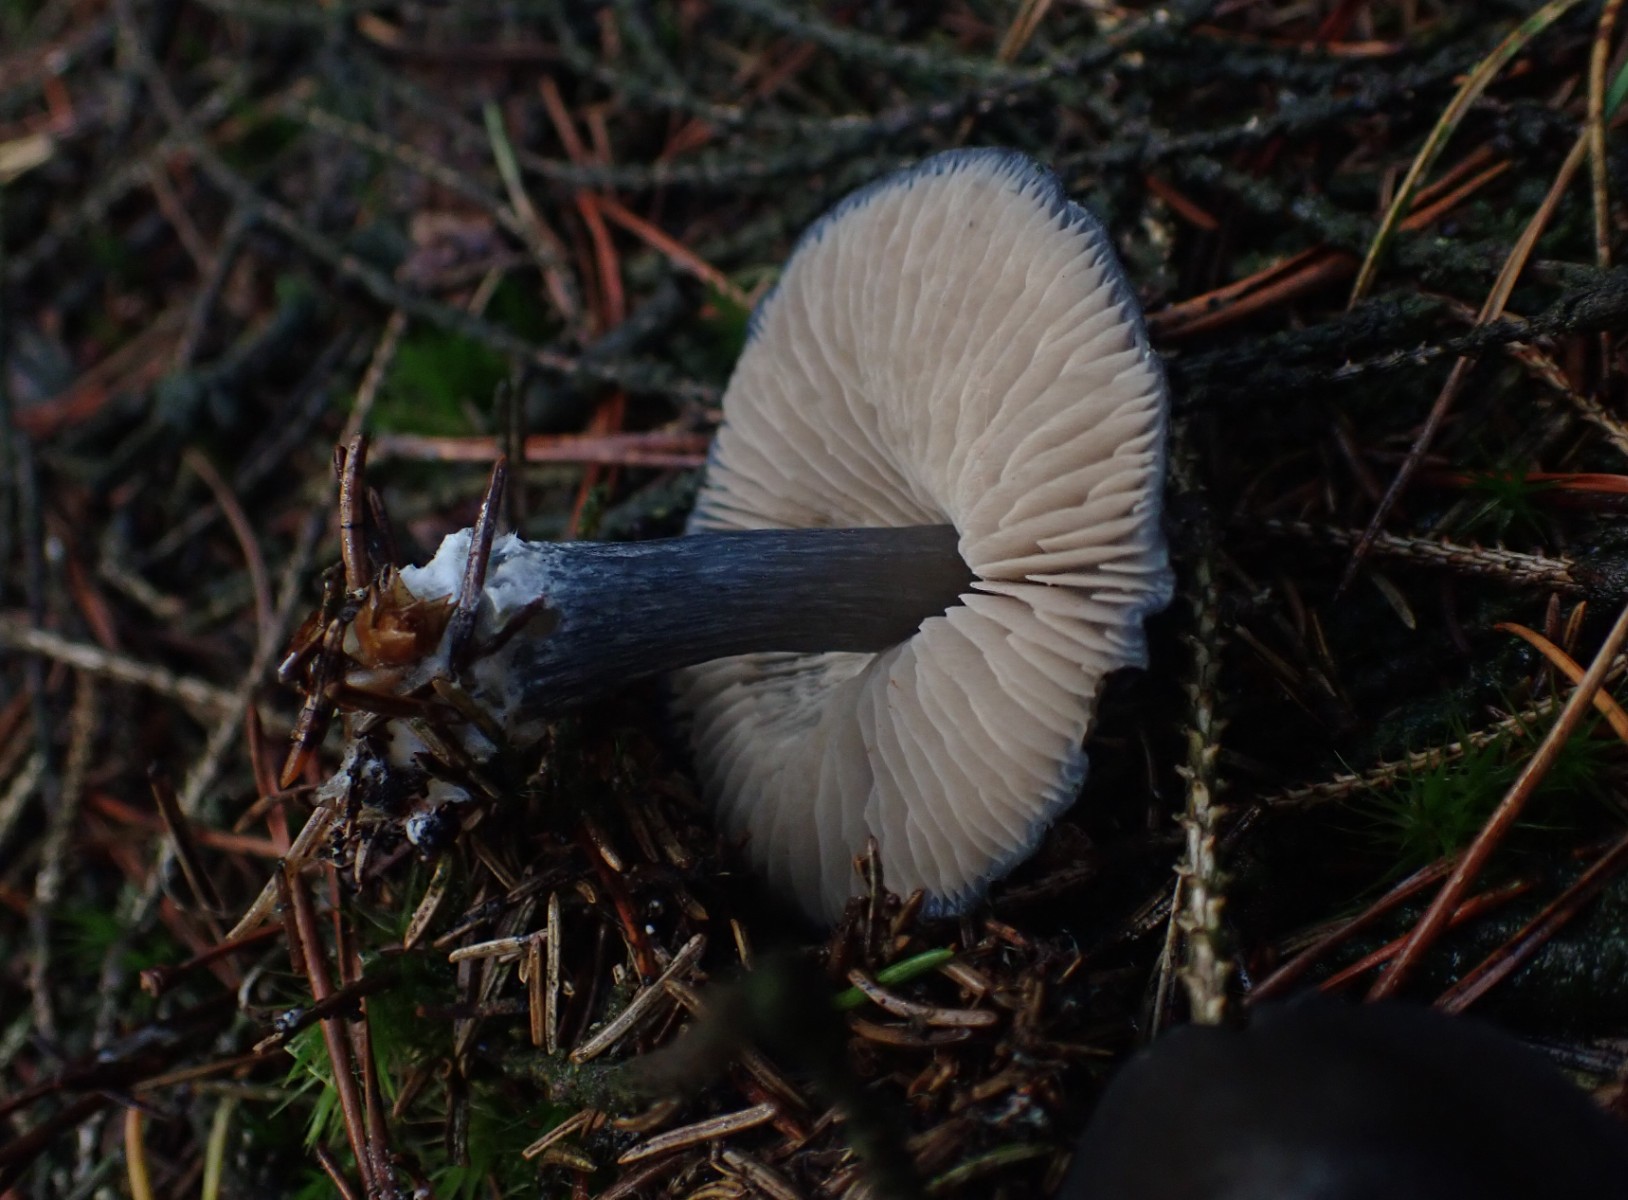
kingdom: Fungi
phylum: Basidiomycota
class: Agaricomycetes
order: Agaricales
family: Entolomataceae
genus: Entocybe
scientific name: Entocybe nitida
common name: stålblå rødblad
